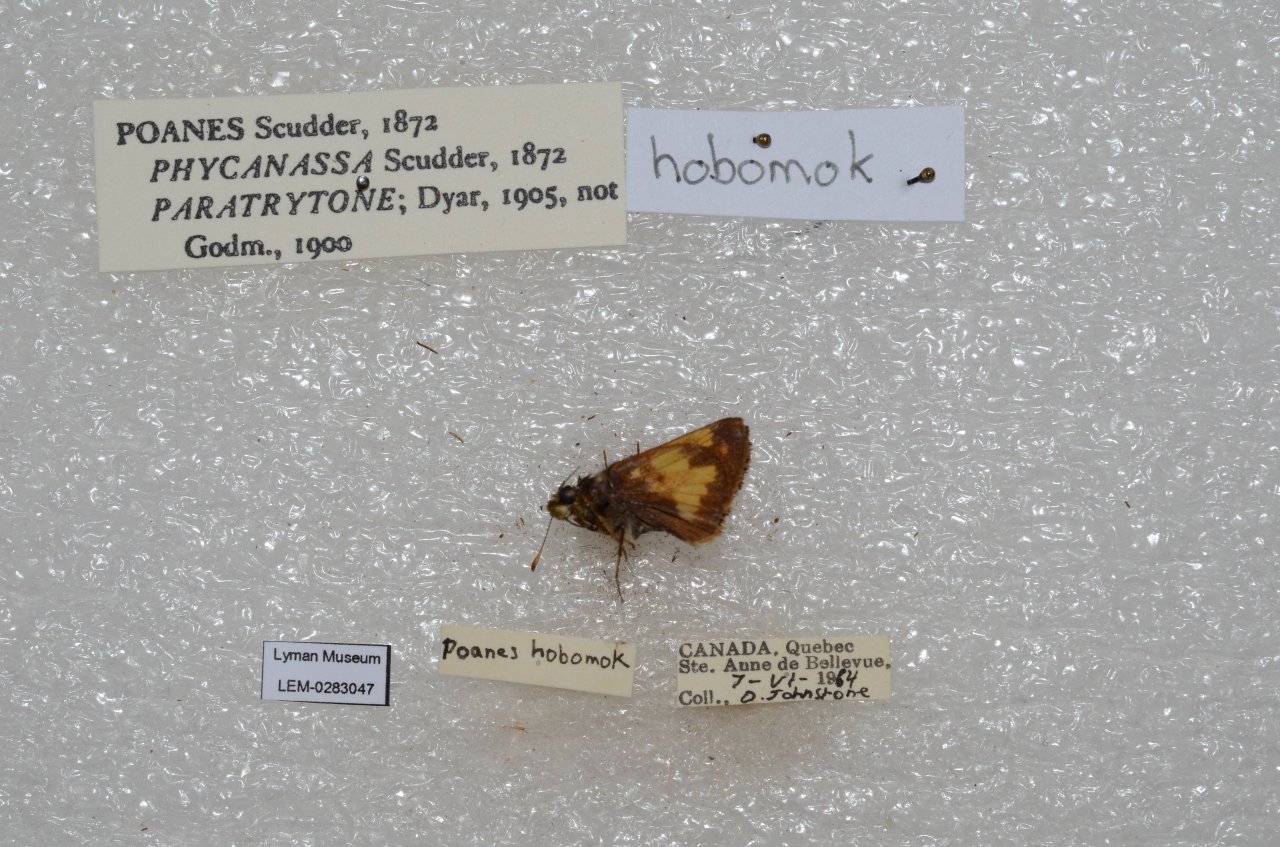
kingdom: Animalia
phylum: Arthropoda
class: Insecta
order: Lepidoptera
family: Hesperiidae
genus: Lon
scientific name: Lon hobomok
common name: Hobomok Skipper
